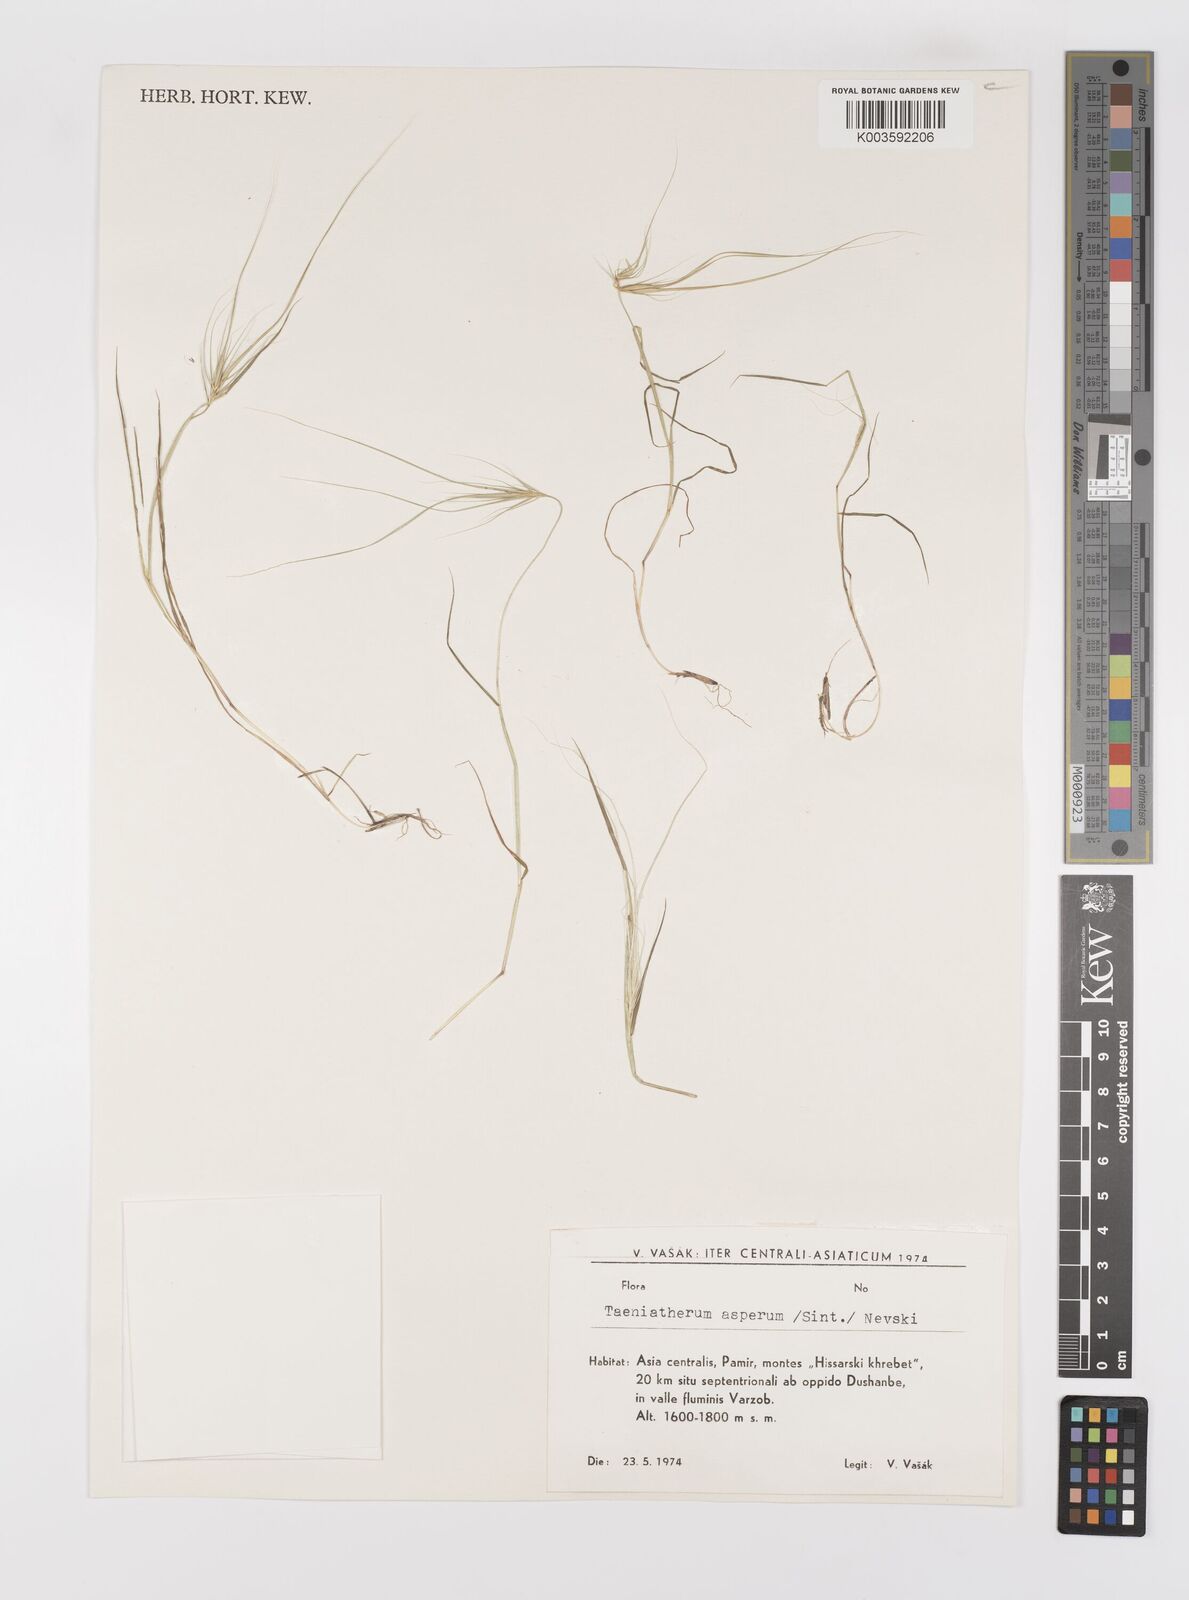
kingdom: Plantae
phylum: Tracheophyta
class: Liliopsida
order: Poales
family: Poaceae
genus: Taeniatherum
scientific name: Taeniatherum caput-medusae
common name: Medusahead
